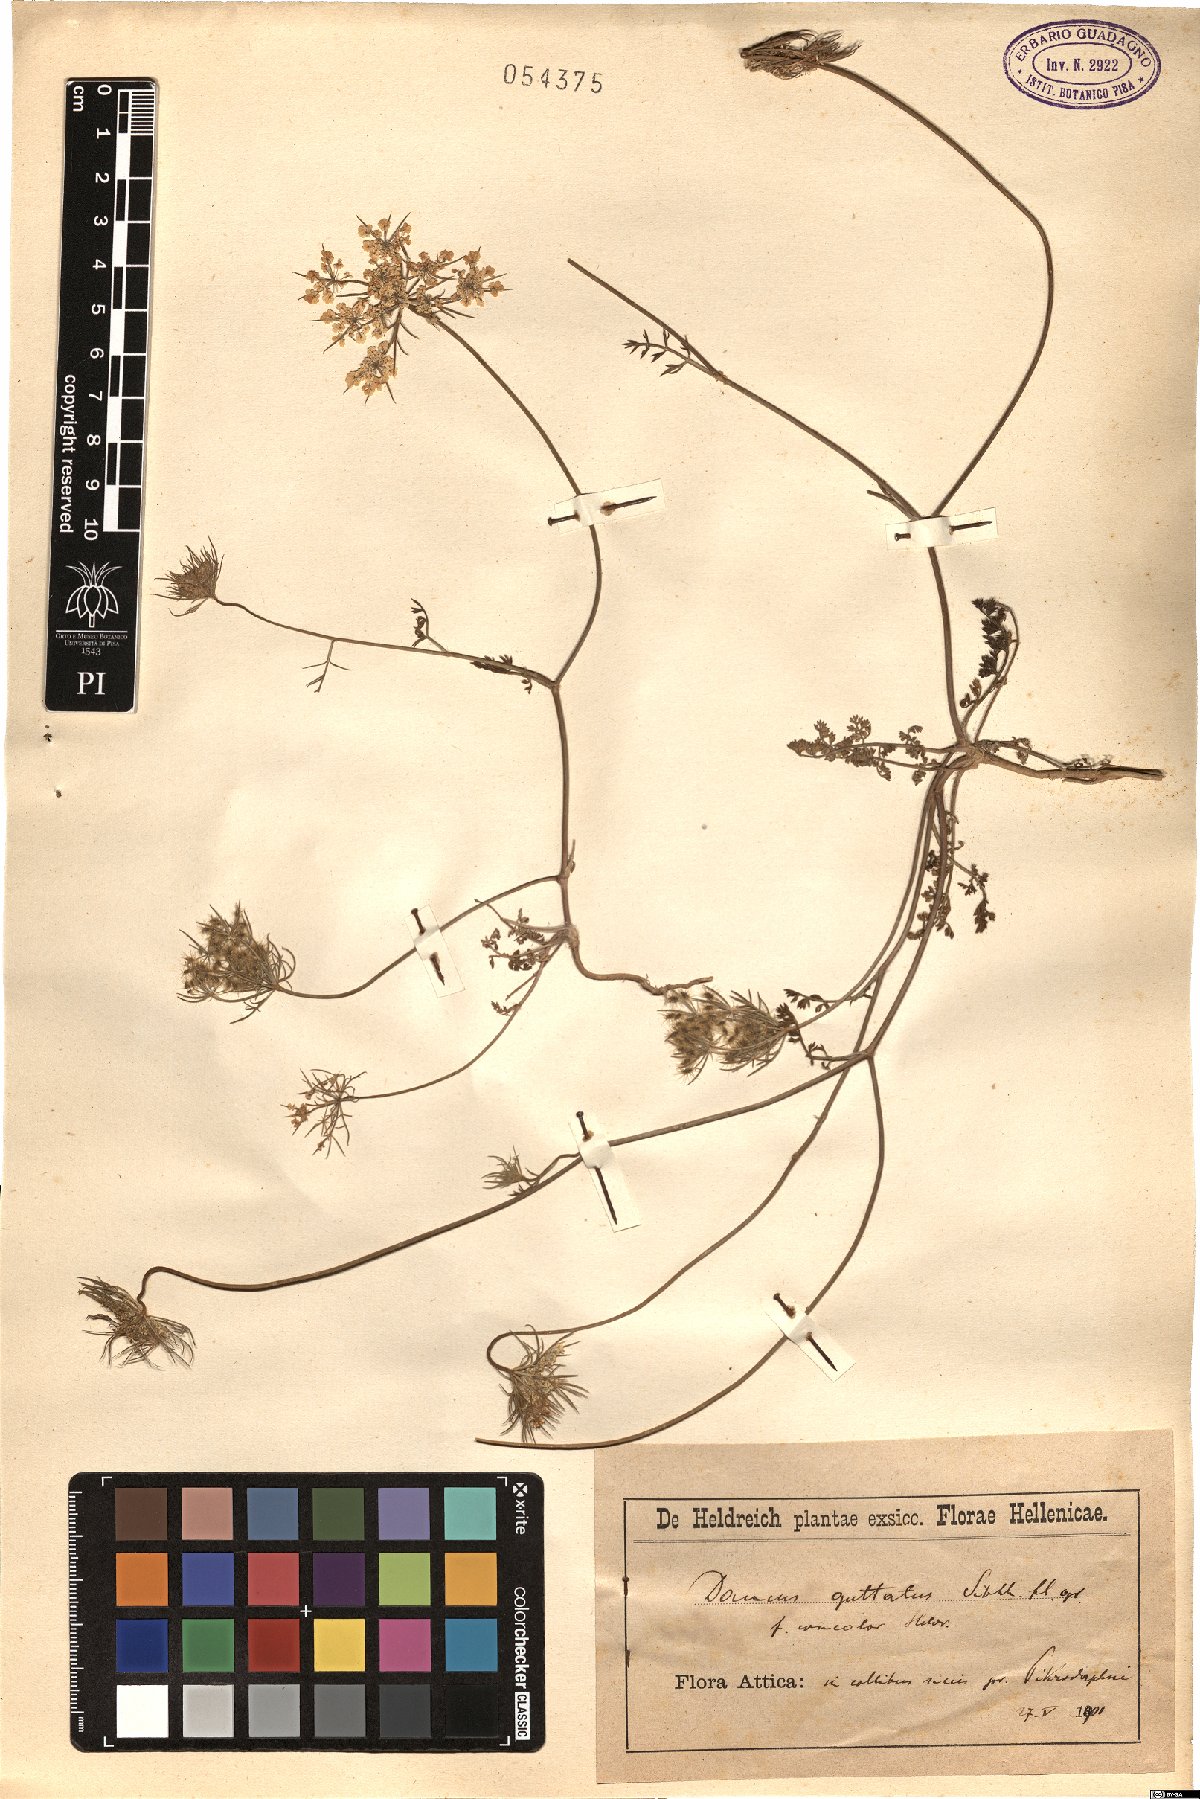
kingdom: Plantae
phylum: Tracheophyta
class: Magnoliopsida
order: Apiales
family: Apiaceae
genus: Daucus
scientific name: Daucus guttatus
